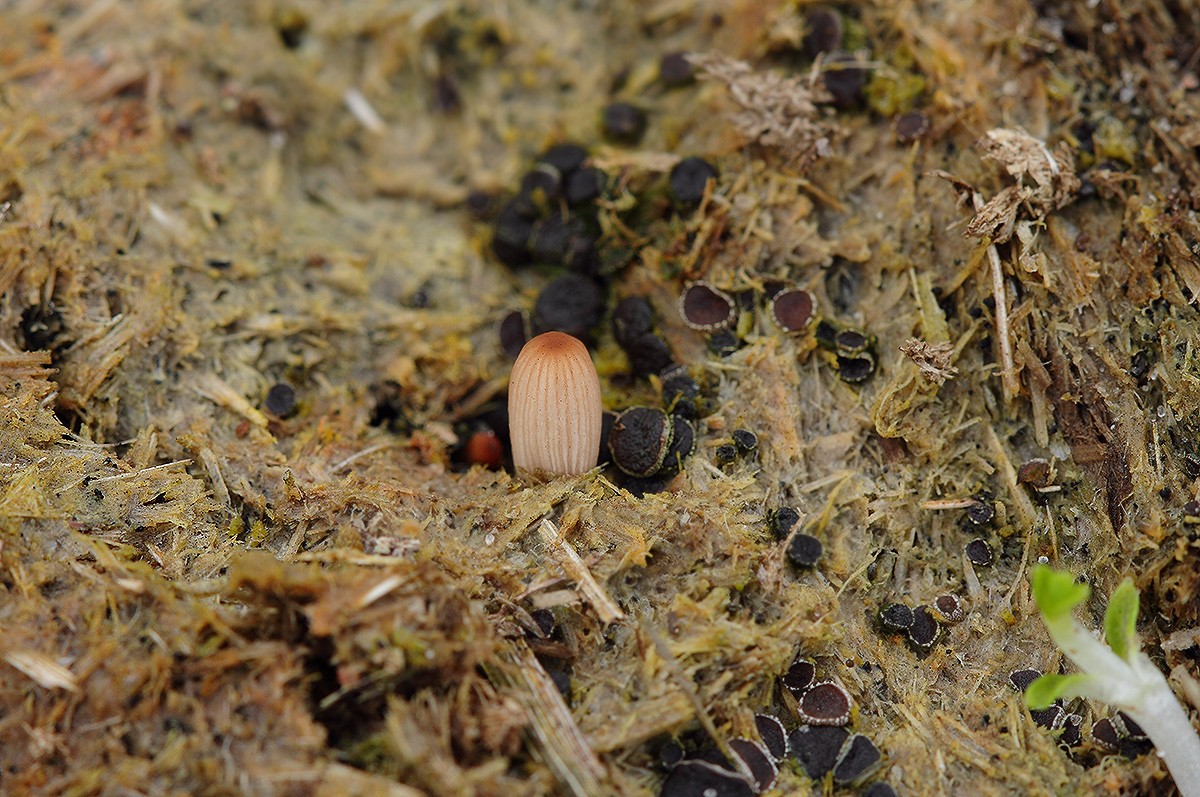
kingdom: Fungi
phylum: Basidiomycota
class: Agaricomycetes
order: Agaricales
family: Psathyrellaceae
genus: Parasola
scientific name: Parasola misera
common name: lillebitte hjulhat
